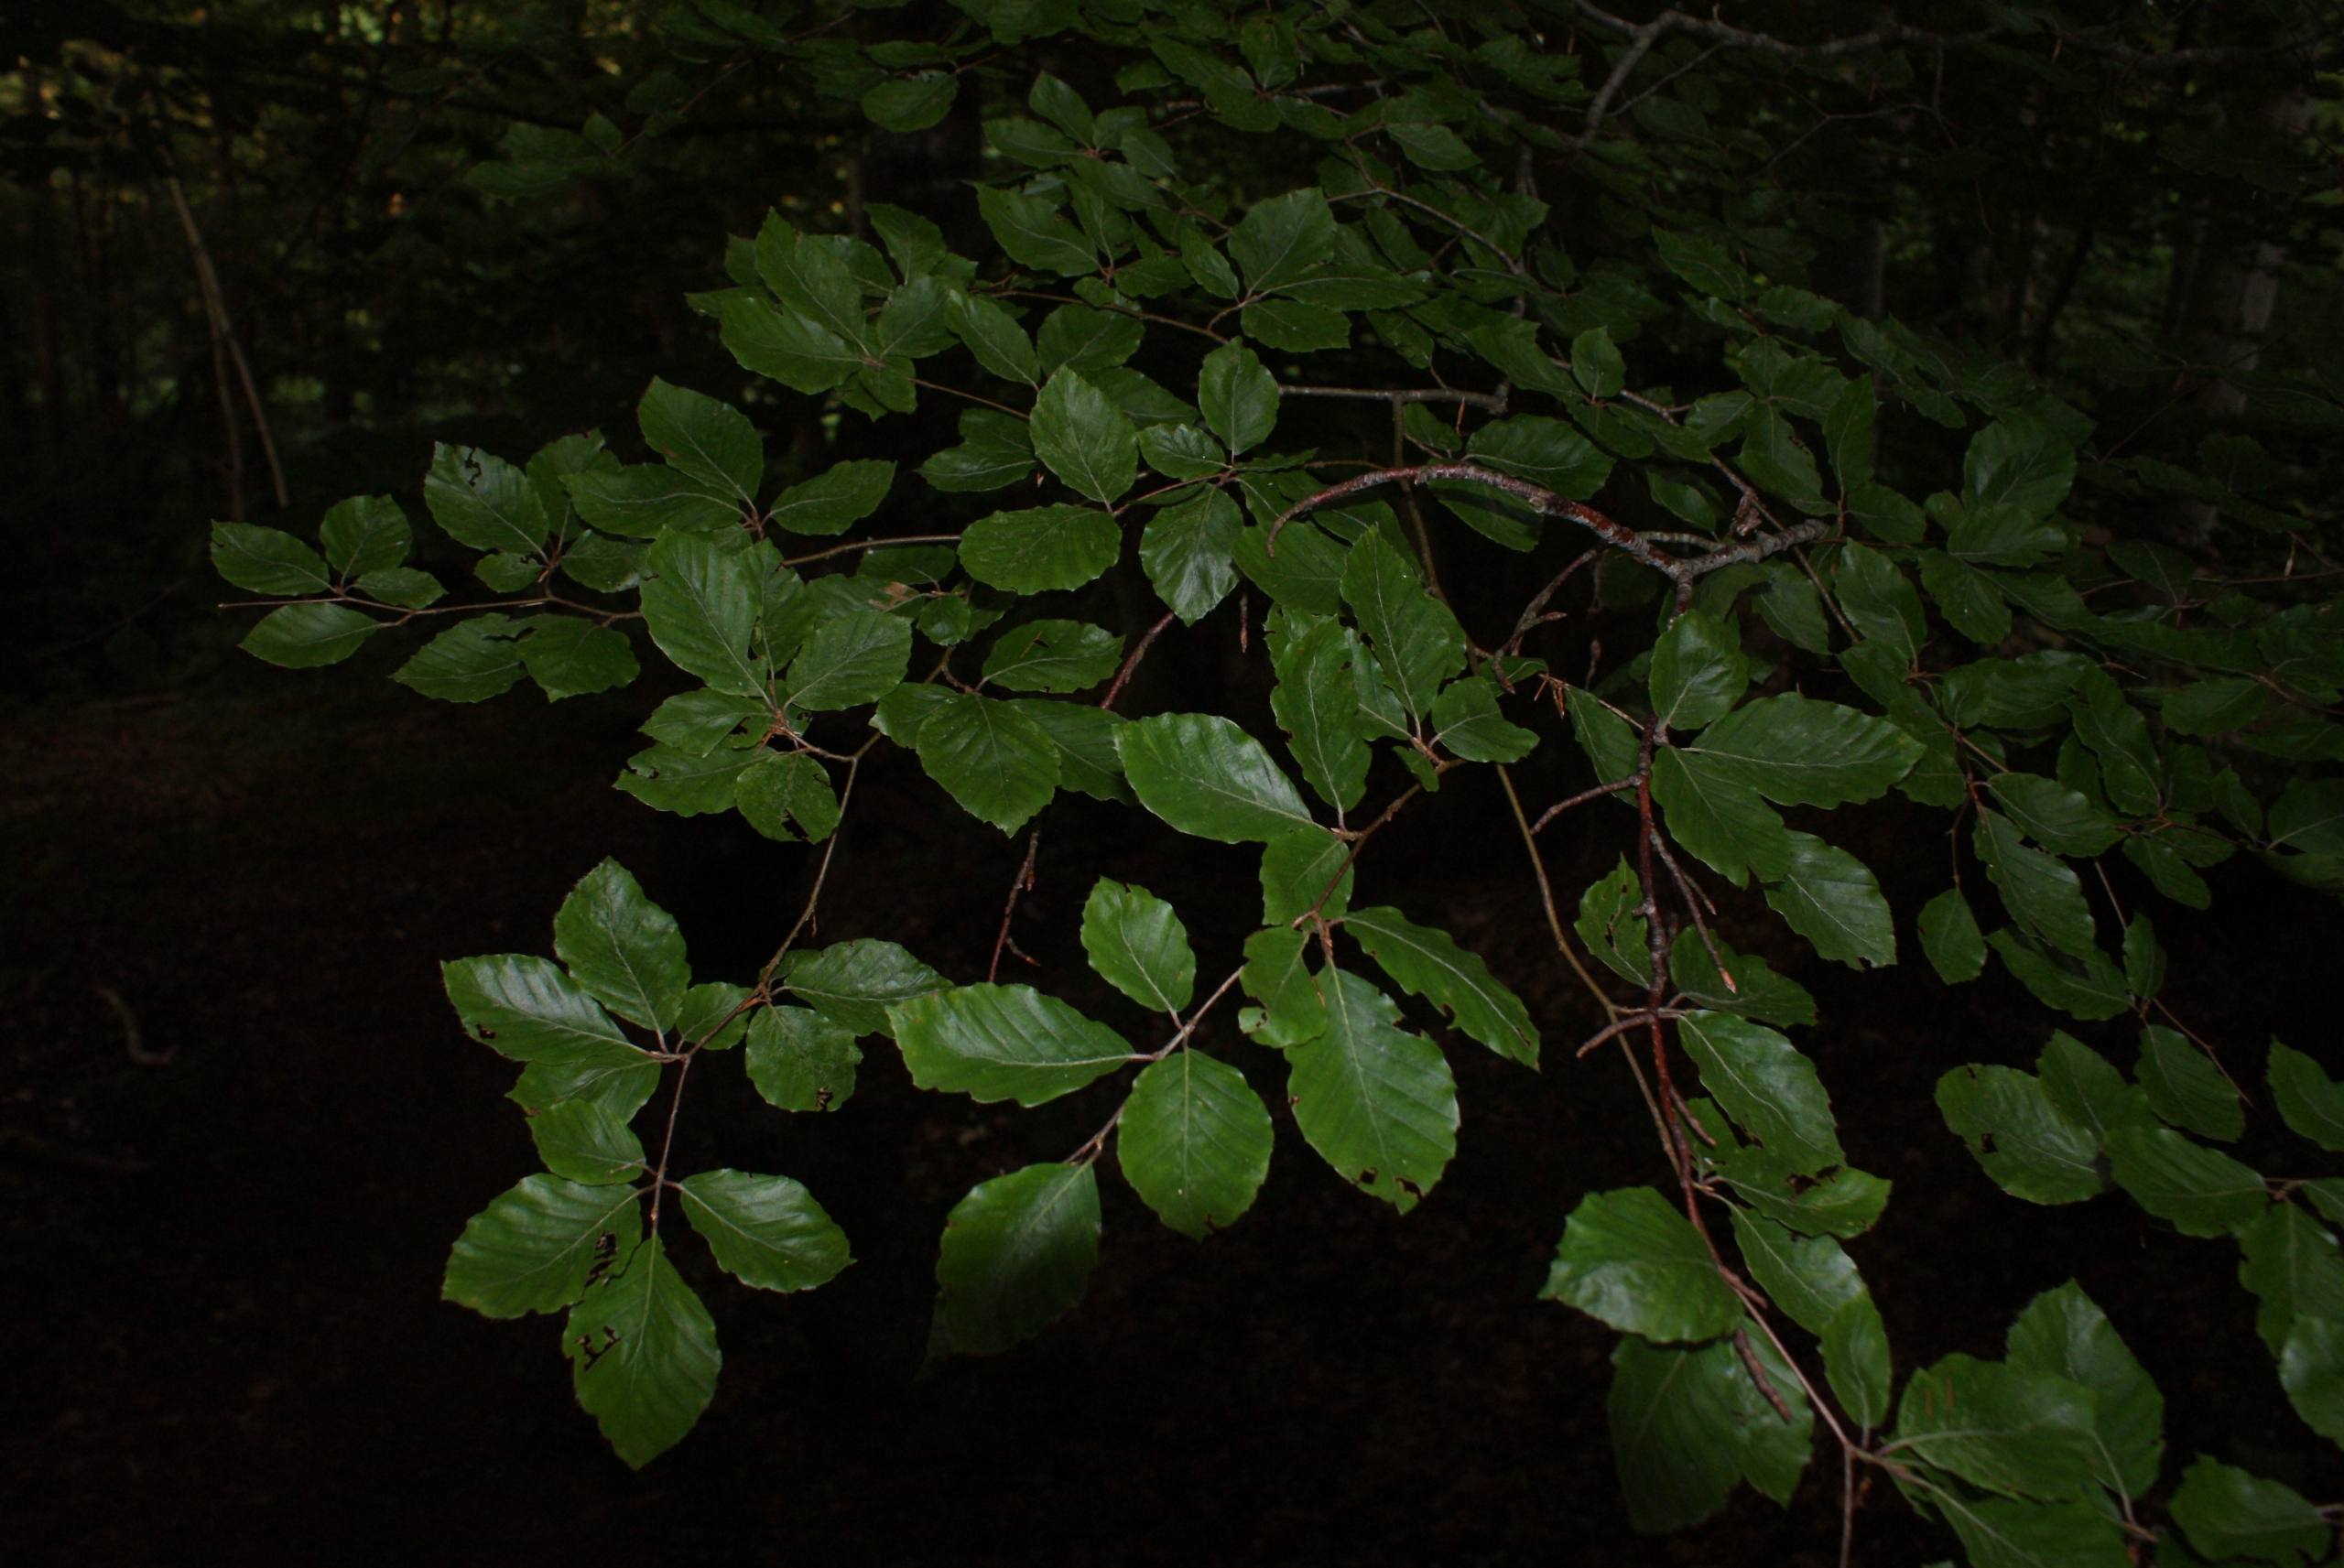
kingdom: Plantae
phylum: Tracheophyta
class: Magnoliopsida
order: Fagales
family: Fagaceae
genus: Fagus
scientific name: Fagus sylvatica
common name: Bøg
